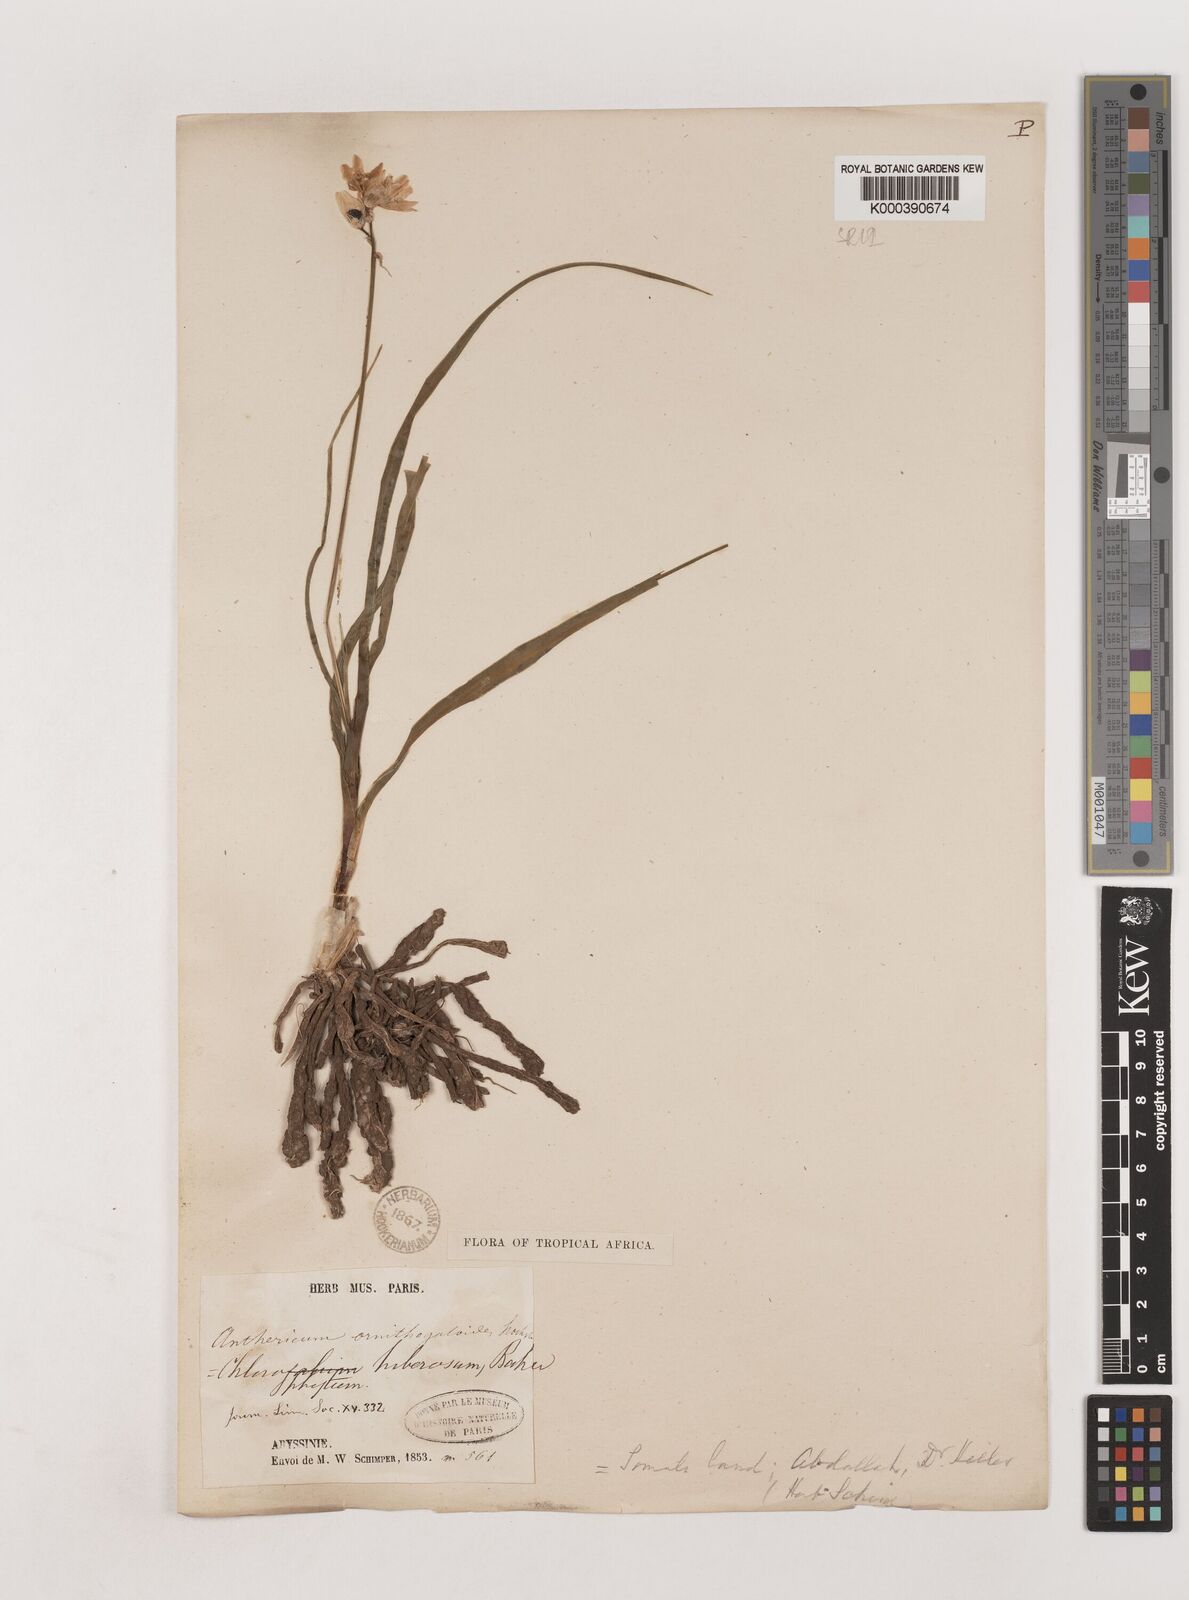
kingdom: Plantae
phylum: Tracheophyta
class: Liliopsida
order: Asparagales
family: Asparagaceae
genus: Chlorophytum
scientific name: Chlorophytum tuberosum
